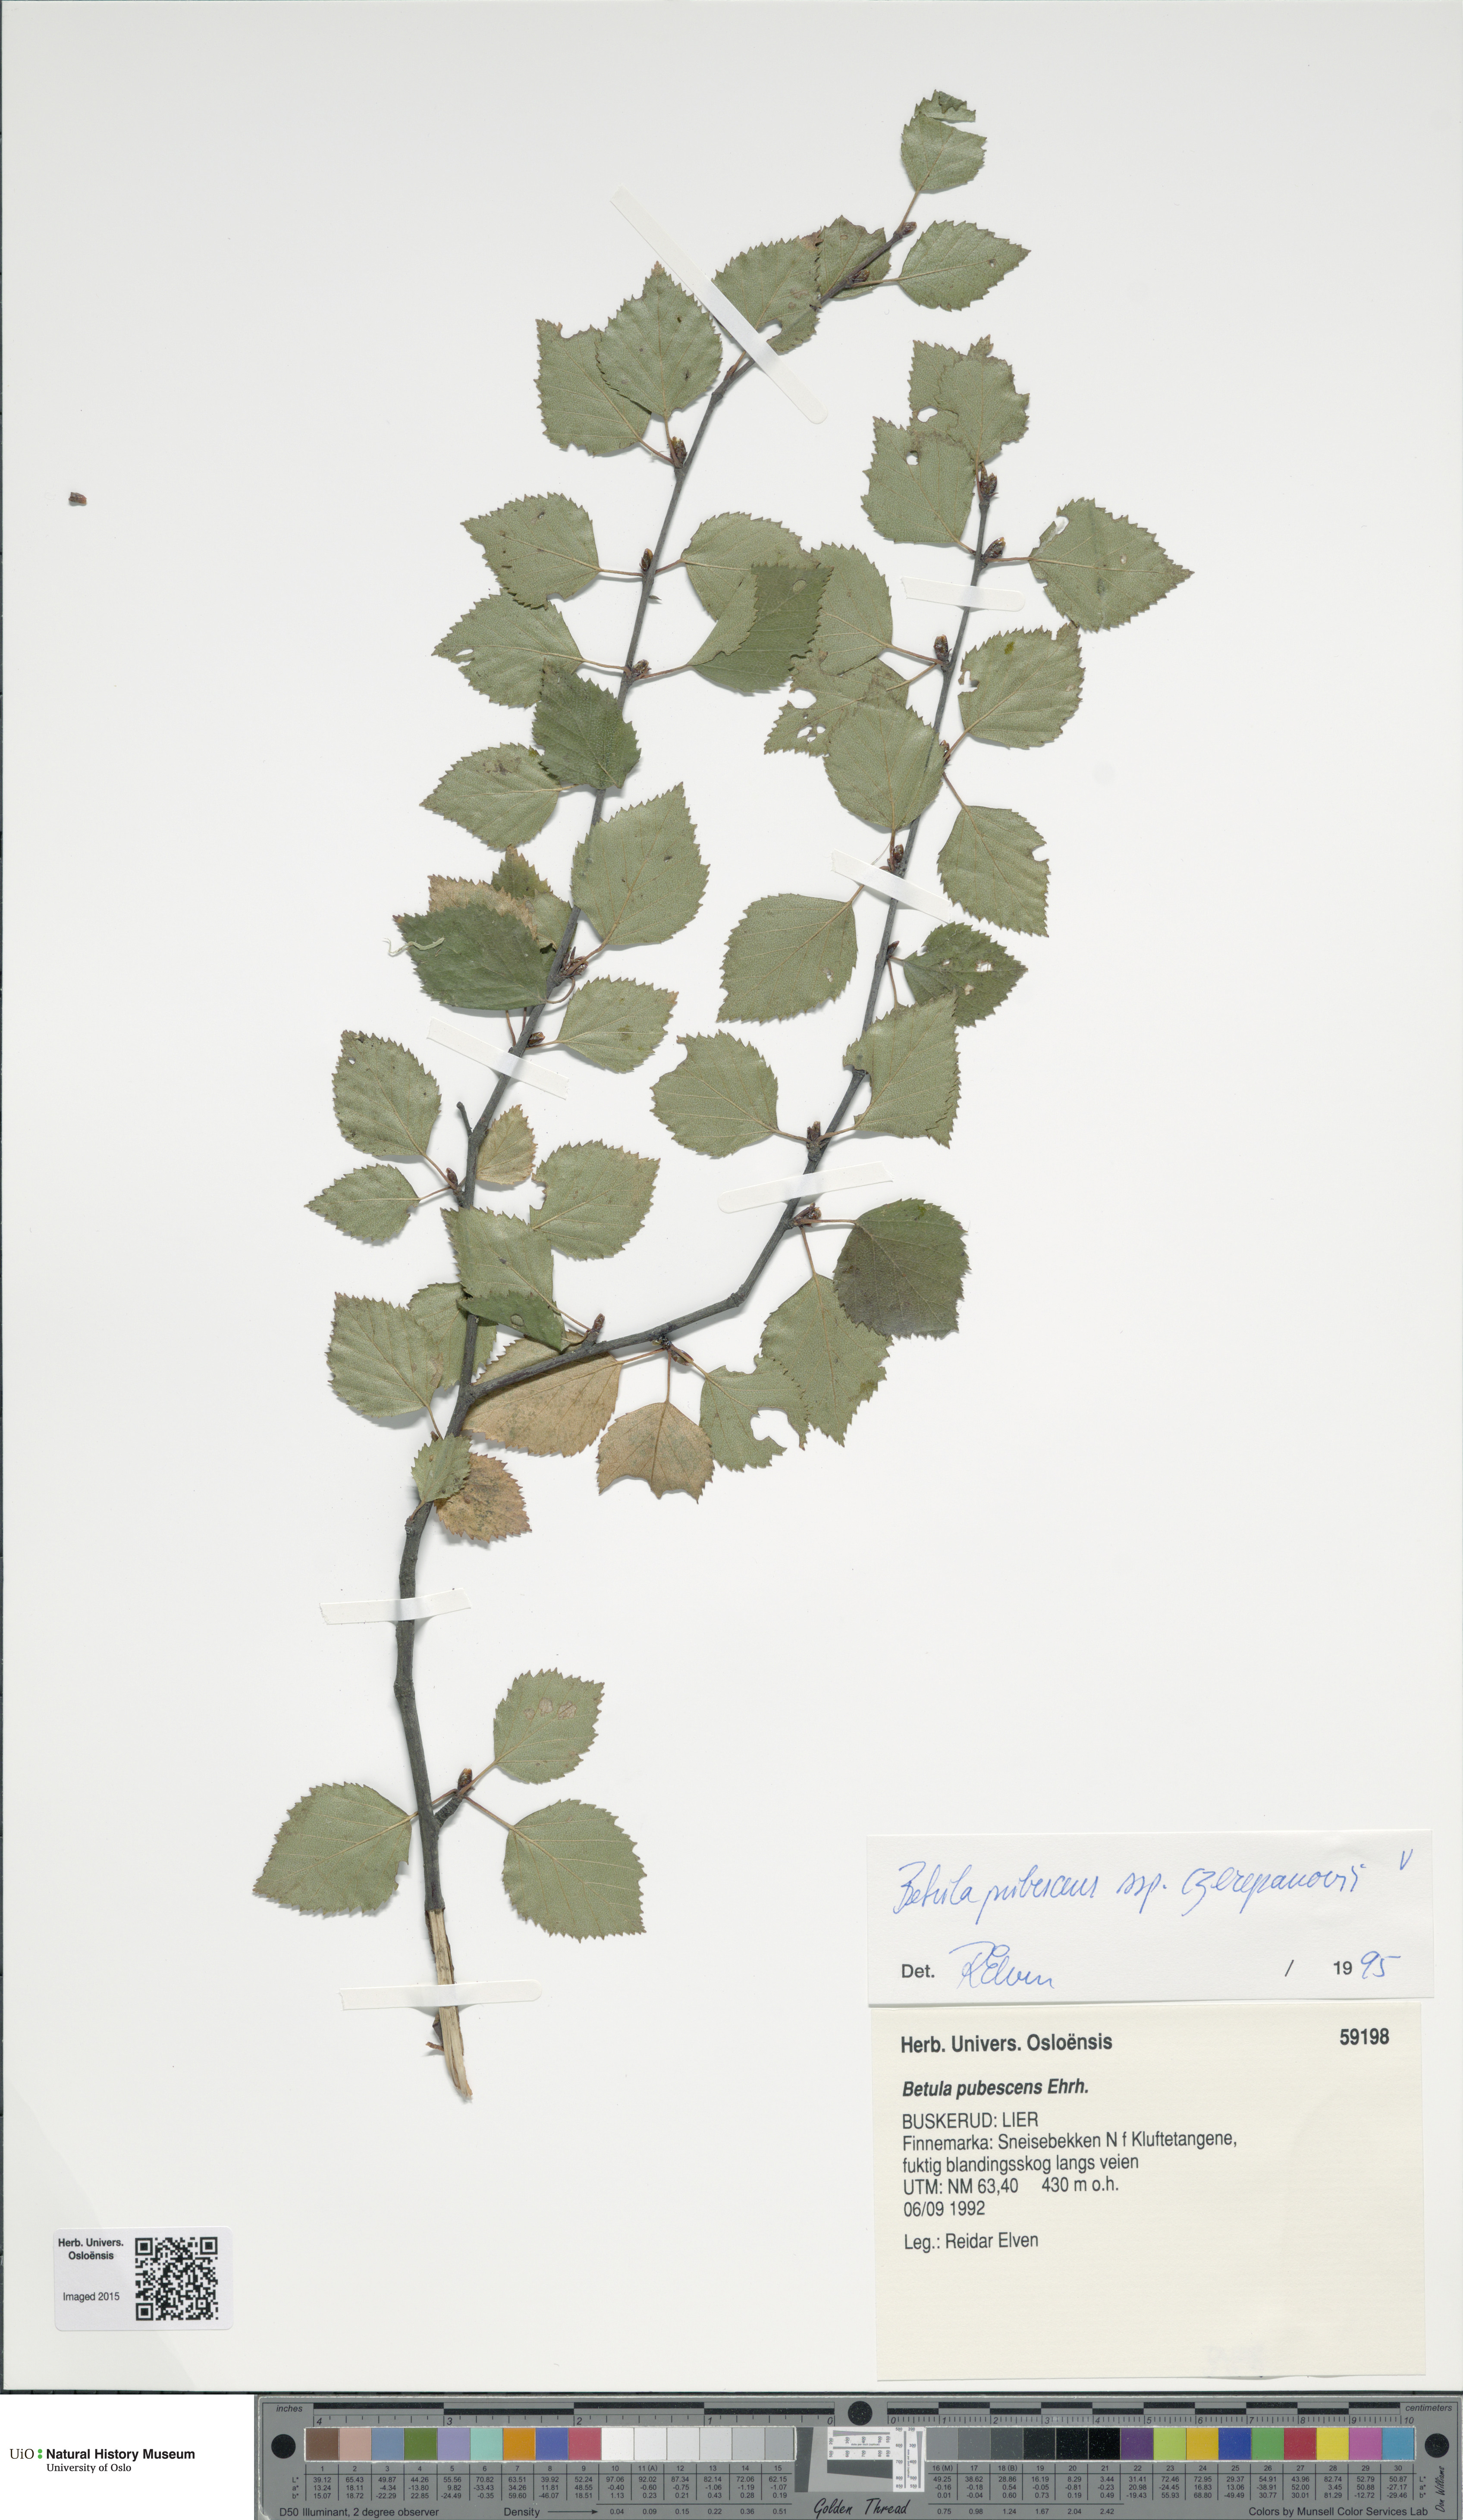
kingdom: Plantae
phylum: Tracheophyta
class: Magnoliopsida
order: Fagales
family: Betulaceae
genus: Betula
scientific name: Betula pubescens
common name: Downy birch
